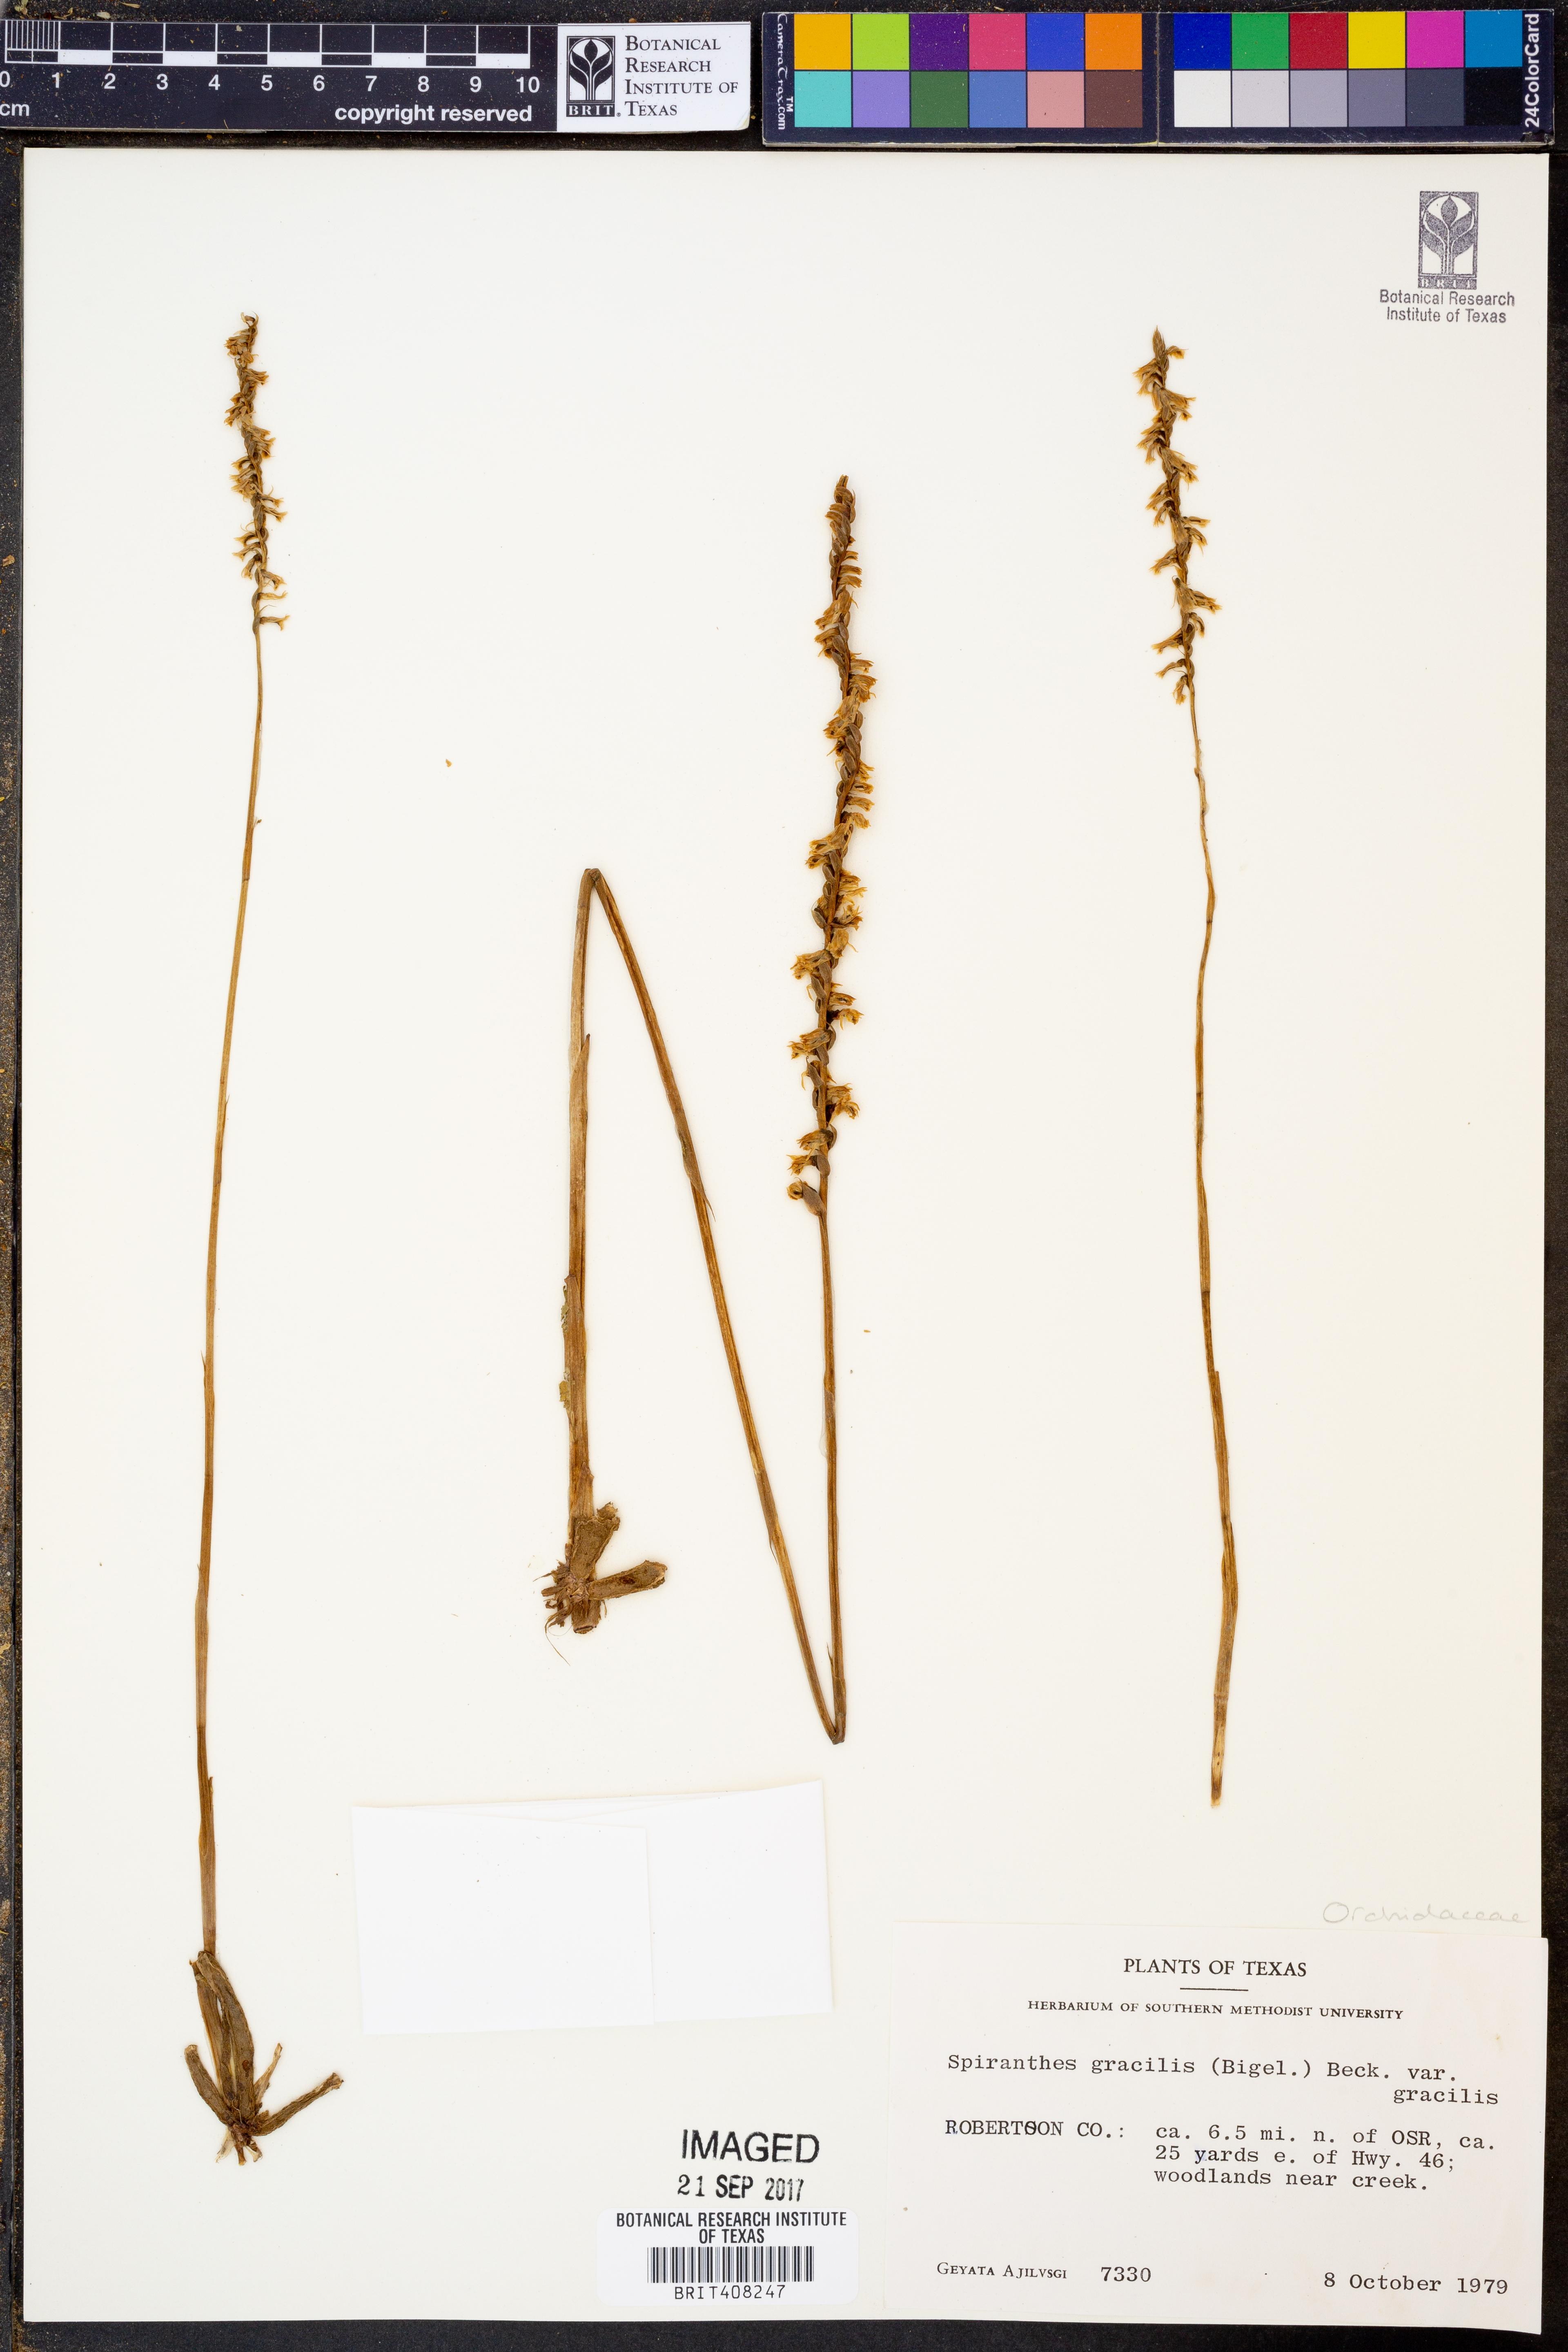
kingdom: Plantae
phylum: Tracheophyta
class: Liliopsida
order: Asparagales
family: Orchidaceae
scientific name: Orchidaceae
